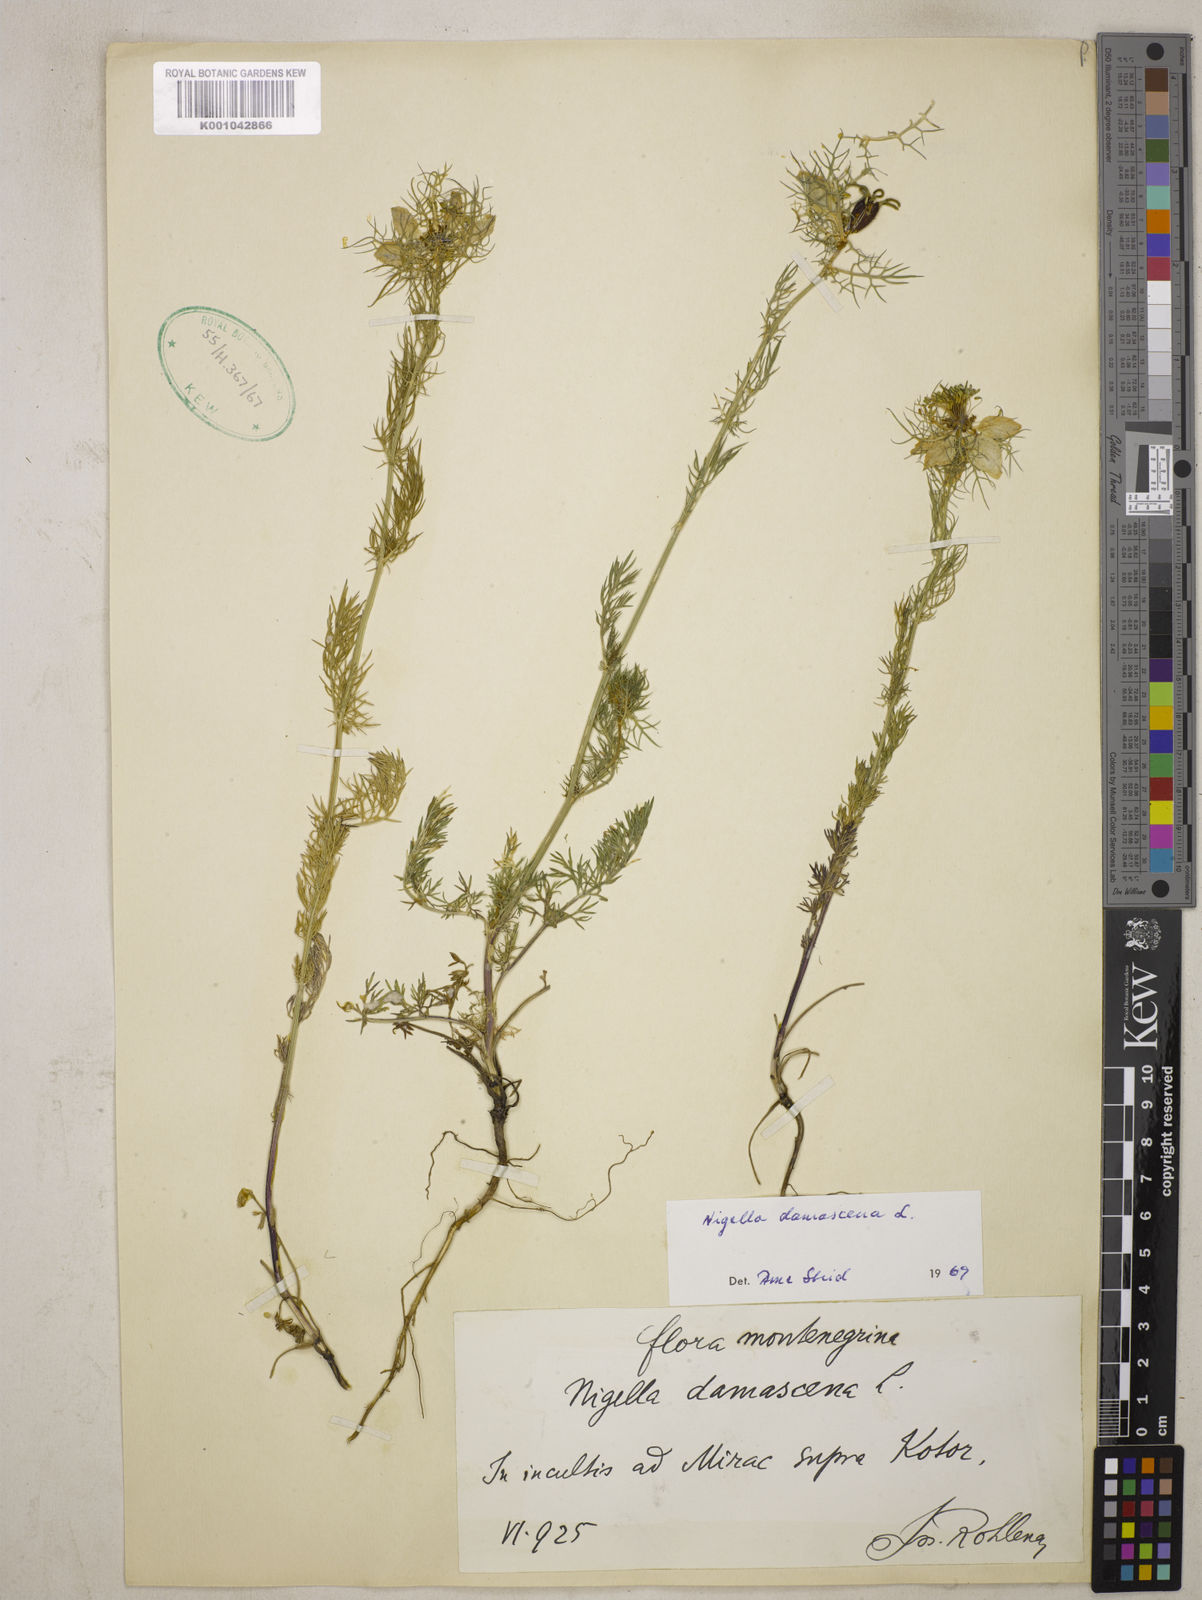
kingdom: Plantae
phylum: Tracheophyta
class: Magnoliopsida
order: Ranunculales
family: Ranunculaceae
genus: Nigella
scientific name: Nigella damascena
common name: Love-in-a-mist
